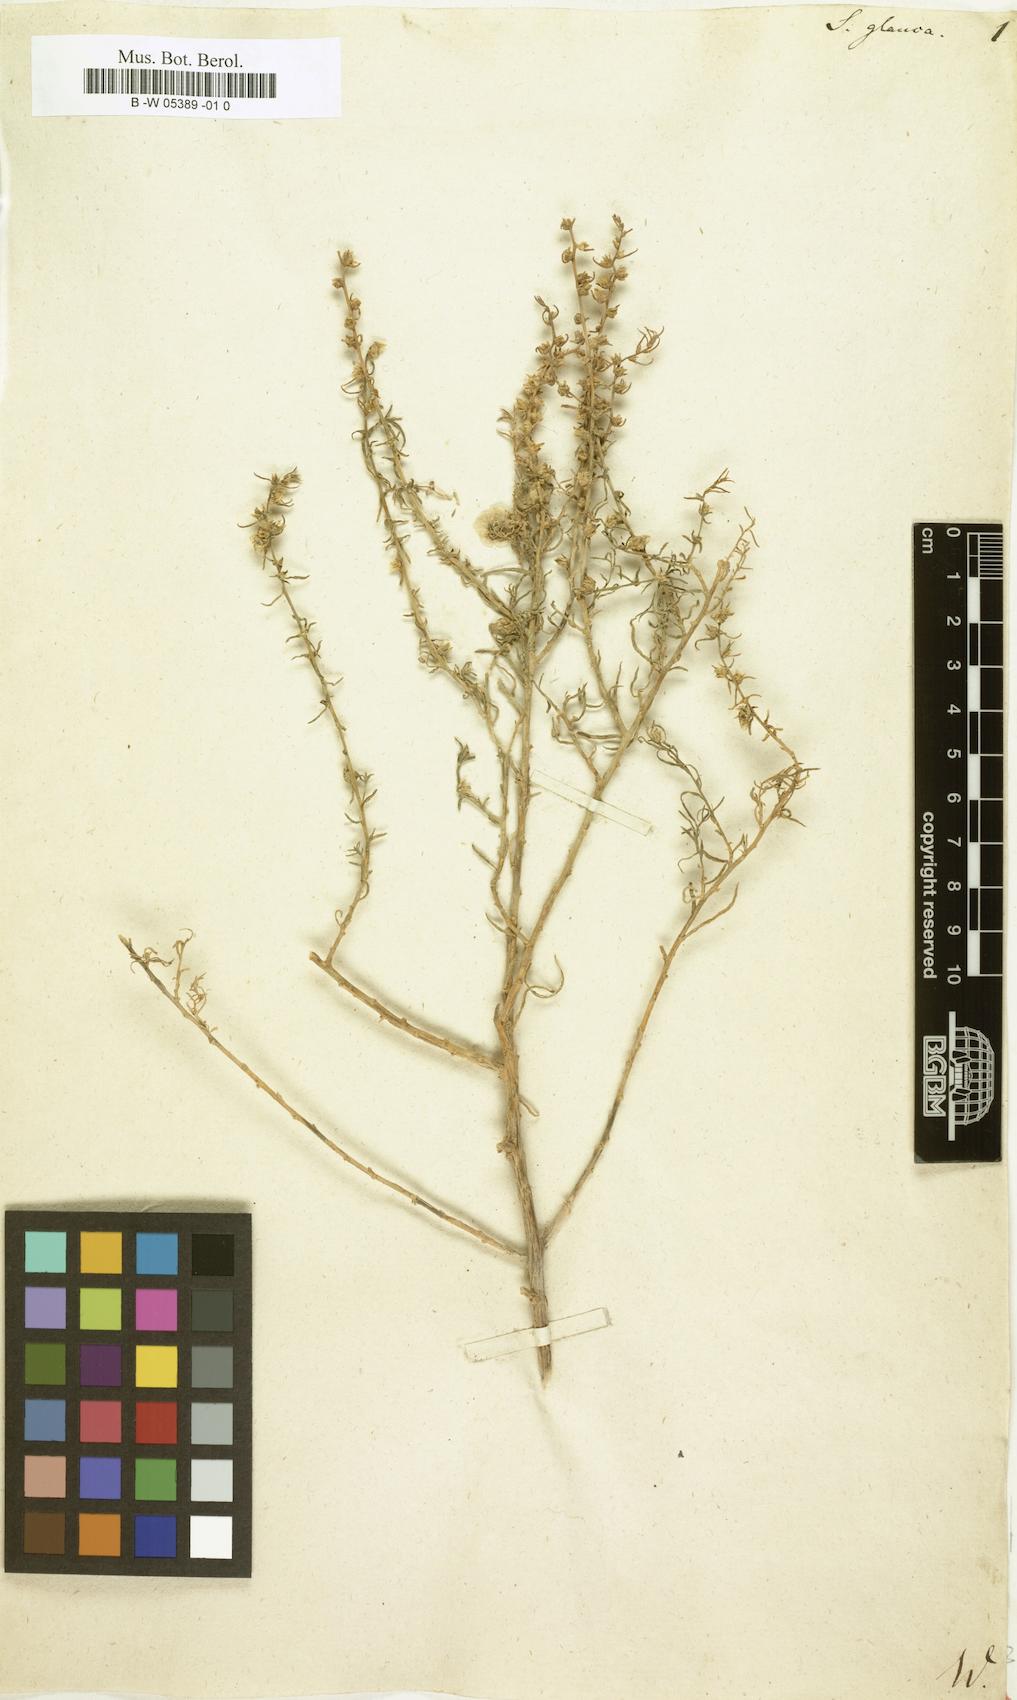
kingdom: Plantae
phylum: Tracheophyta
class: Magnoliopsida
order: Caryophyllales
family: Amaranthaceae
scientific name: Amaranthaceae
